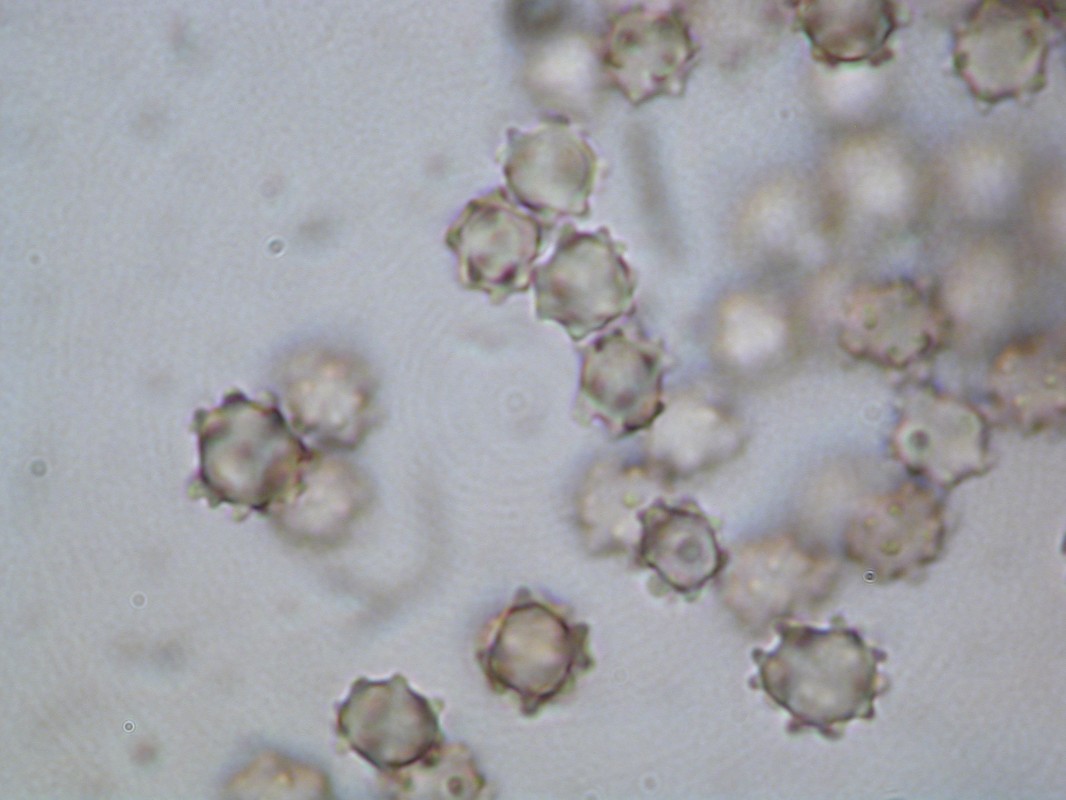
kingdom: Fungi
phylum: Basidiomycota
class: Agaricomycetes
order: Thelephorales
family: Bankeraceae
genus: Hydnellum
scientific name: Hydnellum fagiscabrosum
